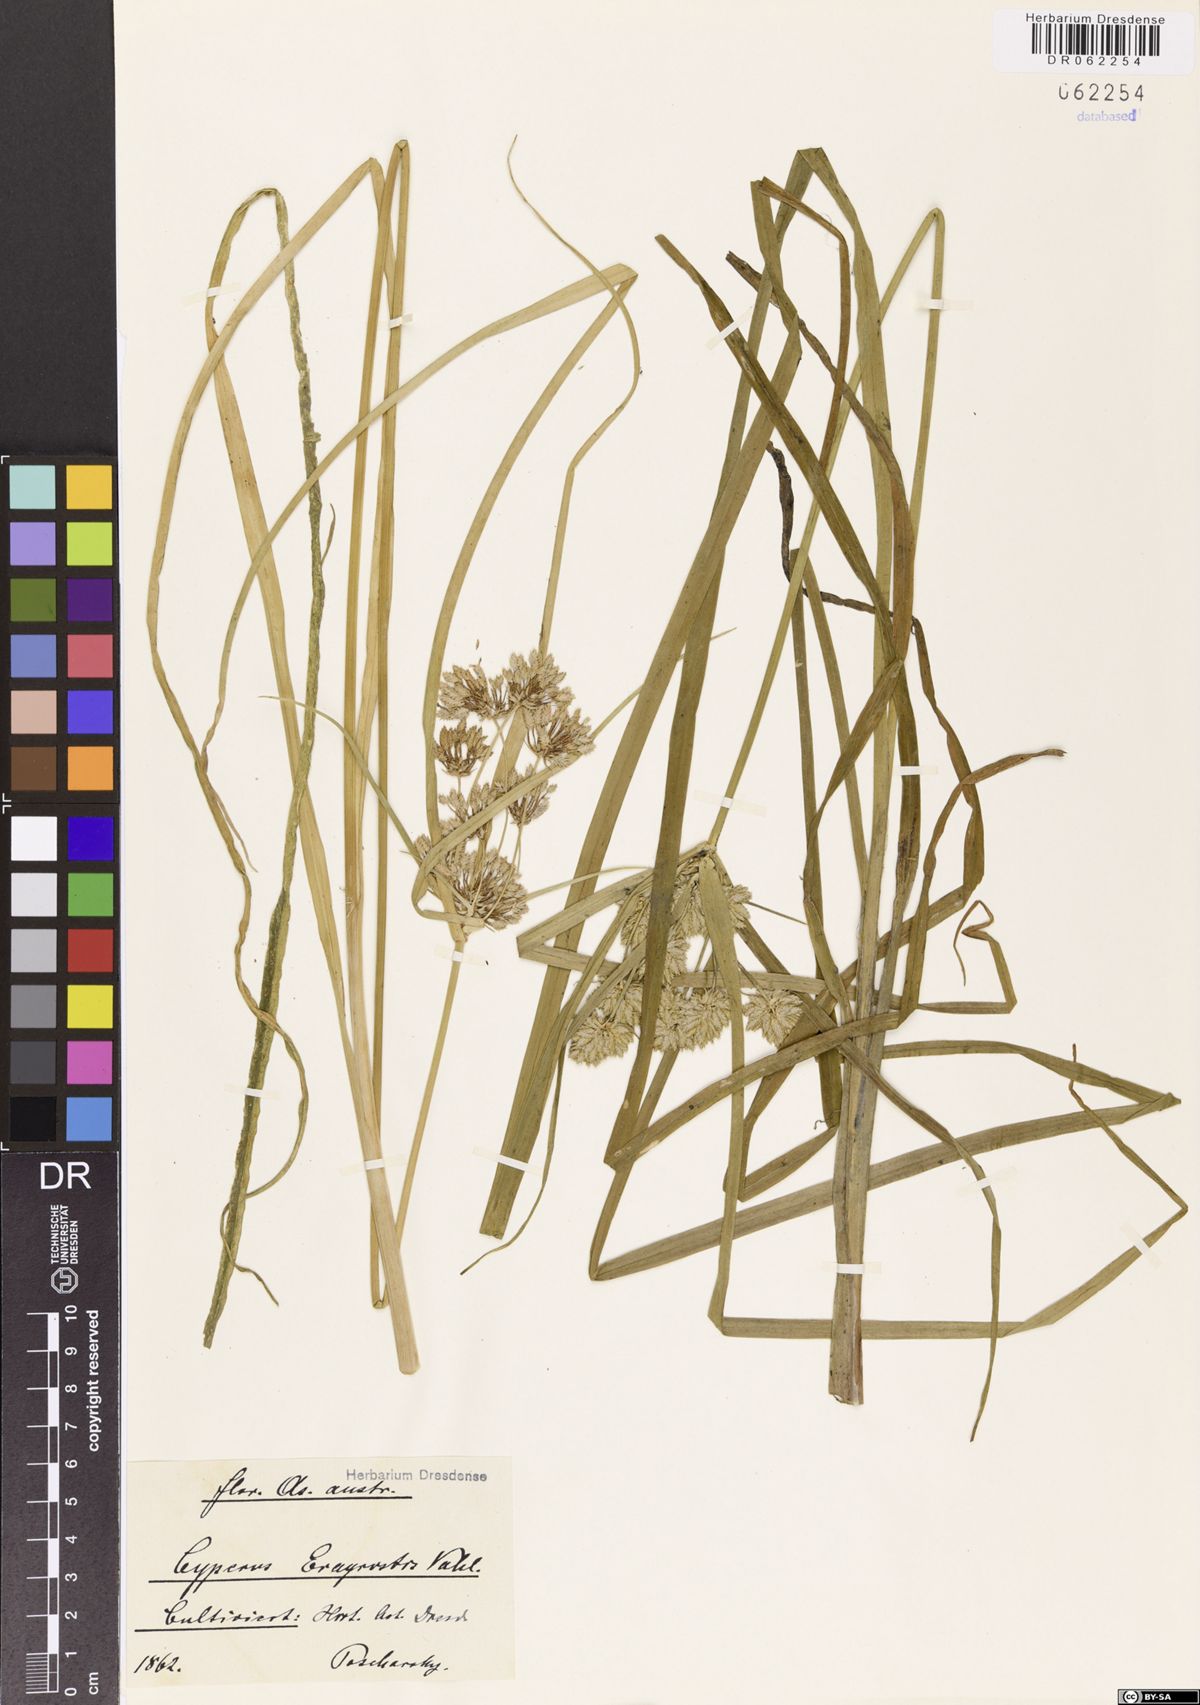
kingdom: Plantae
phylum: Tracheophyta
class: Liliopsida
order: Poales
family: Cyperaceae
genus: Cyperus
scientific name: Cyperus eragrostis
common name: Tall flatsedge
